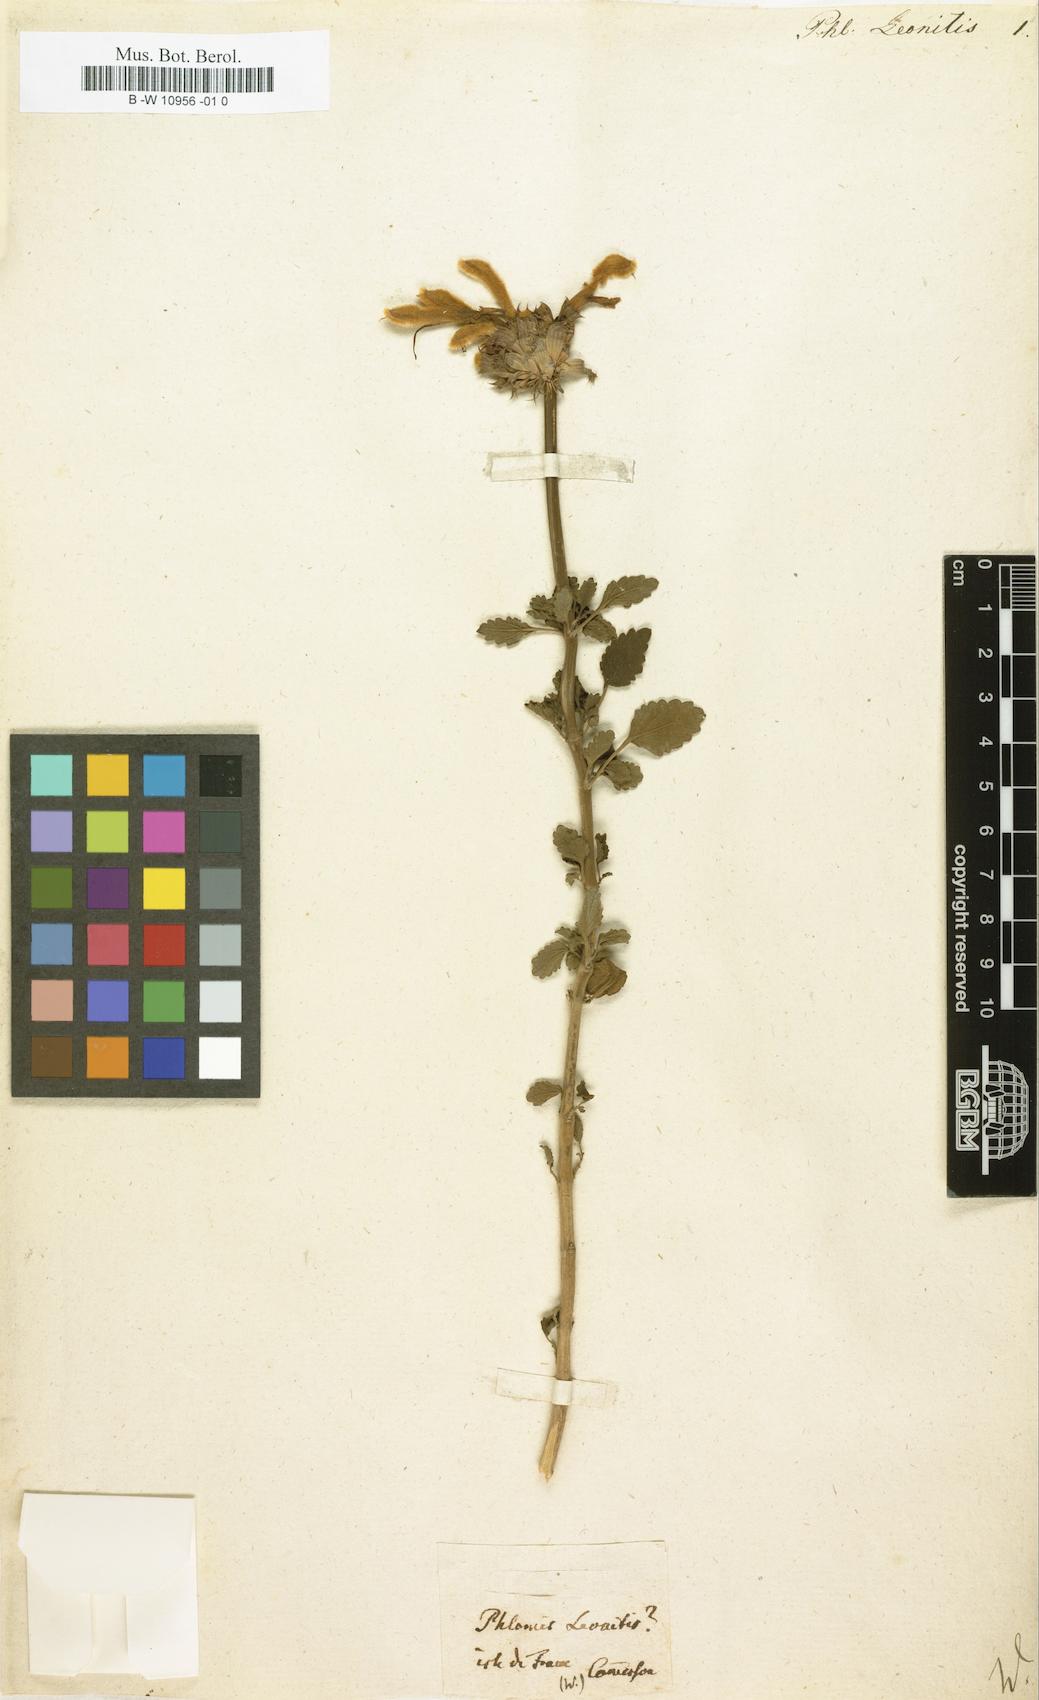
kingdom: Plantae
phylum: Tracheophyta
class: Magnoliopsida
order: Lamiales
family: Lamiaceae
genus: Leonotis
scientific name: Leonotis ocymifolia
